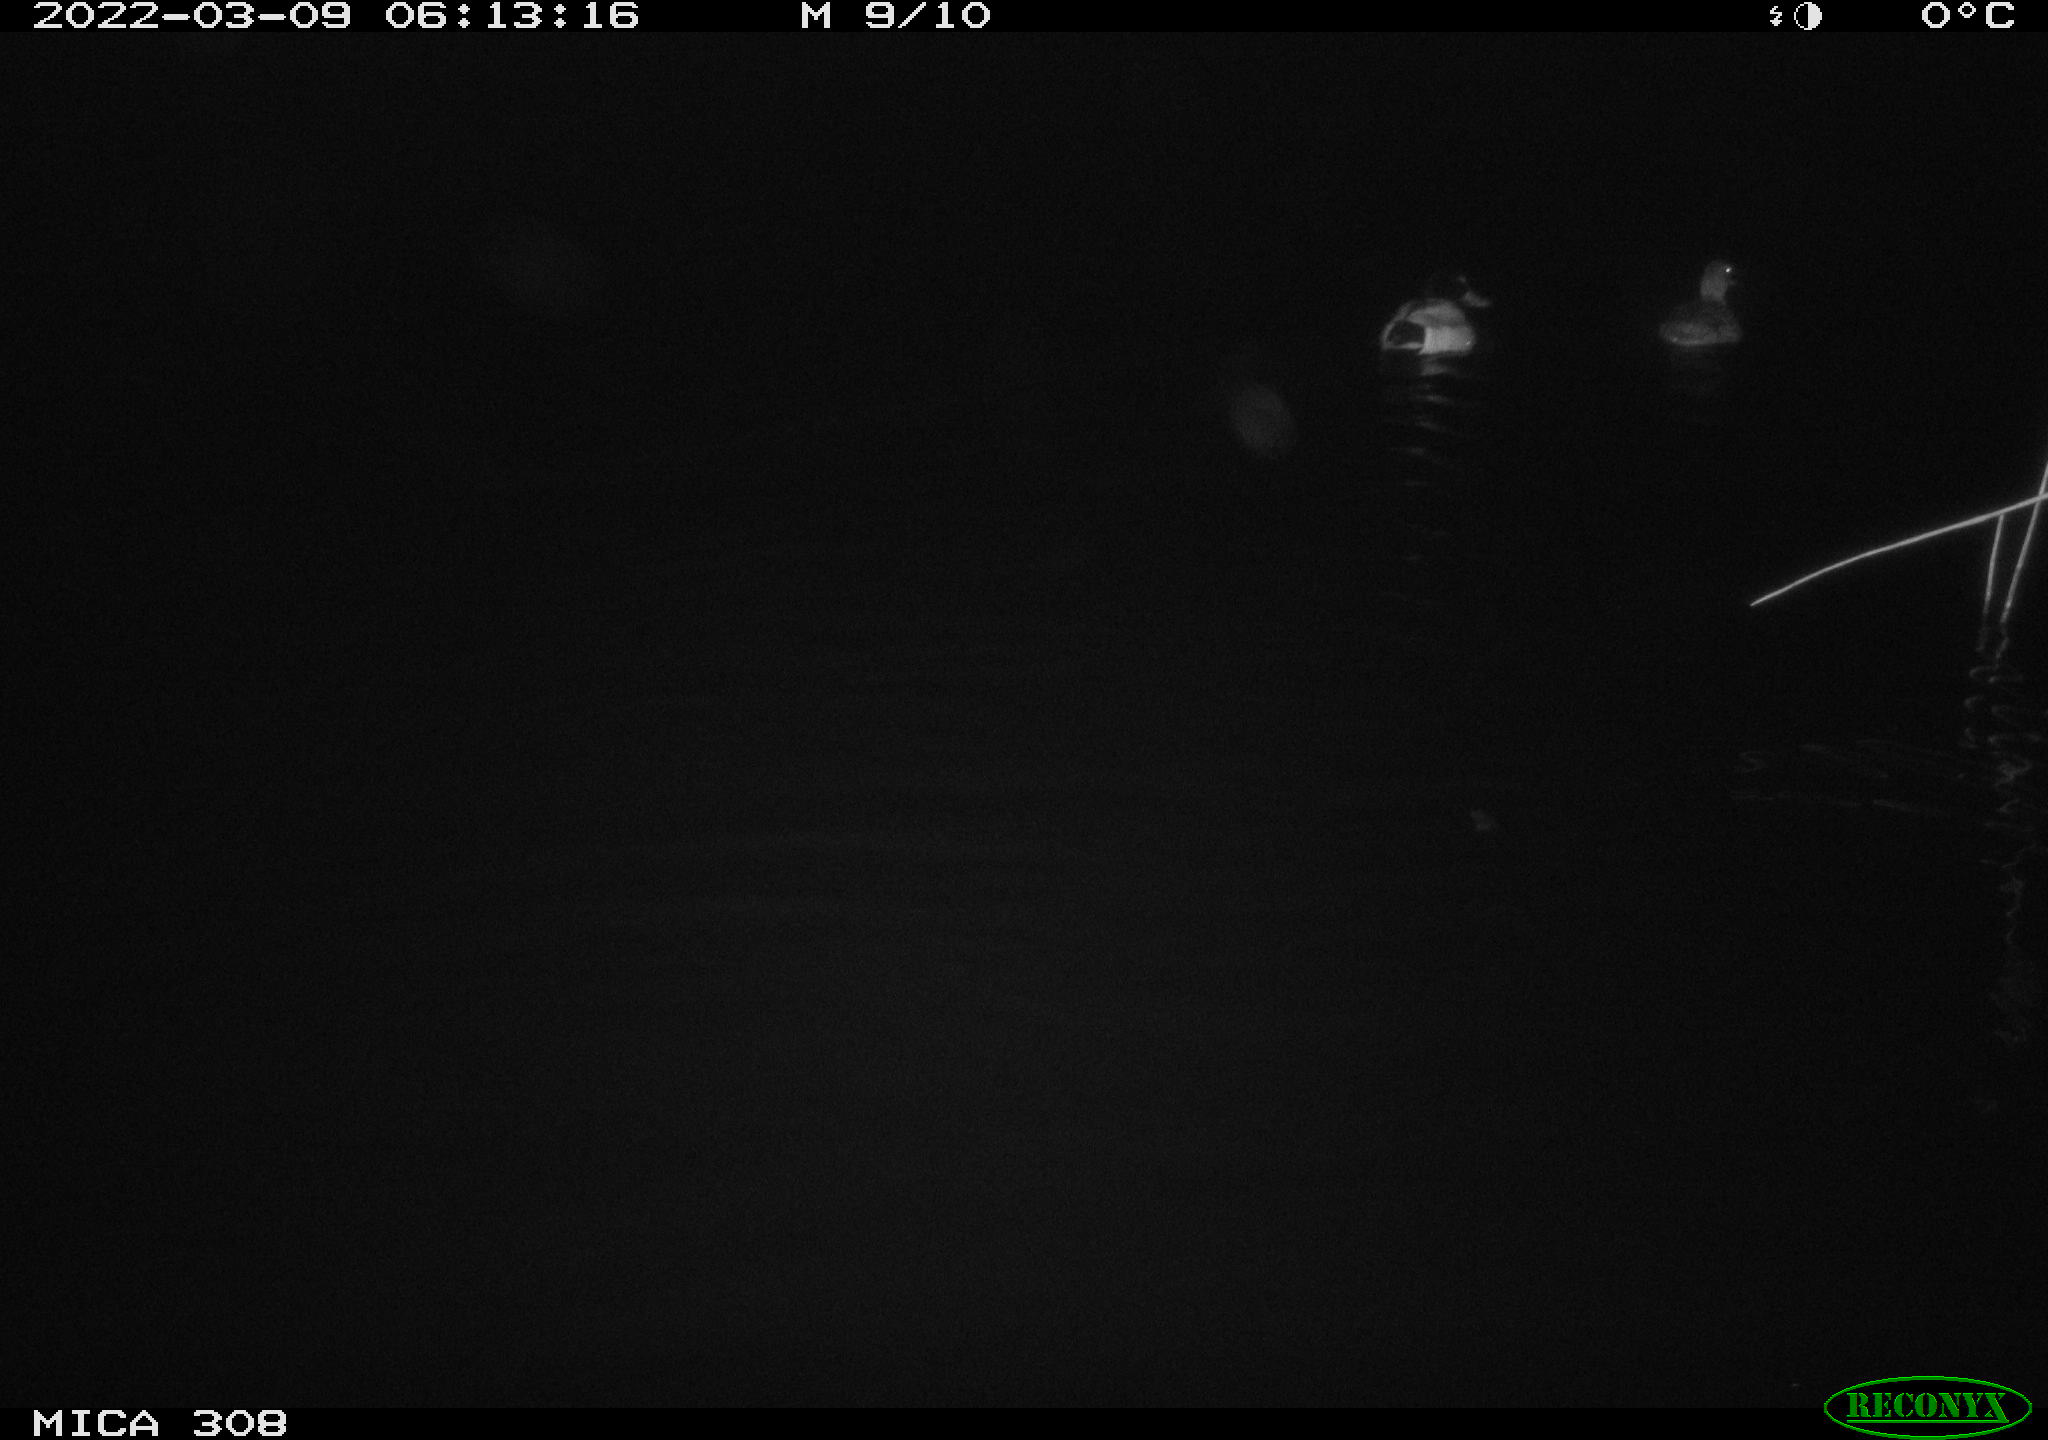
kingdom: Animalia
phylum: Chordata
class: Aves
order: Anseriformes
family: Anatidae
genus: Anas
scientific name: Anas platyrhynchos
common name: Mallard
